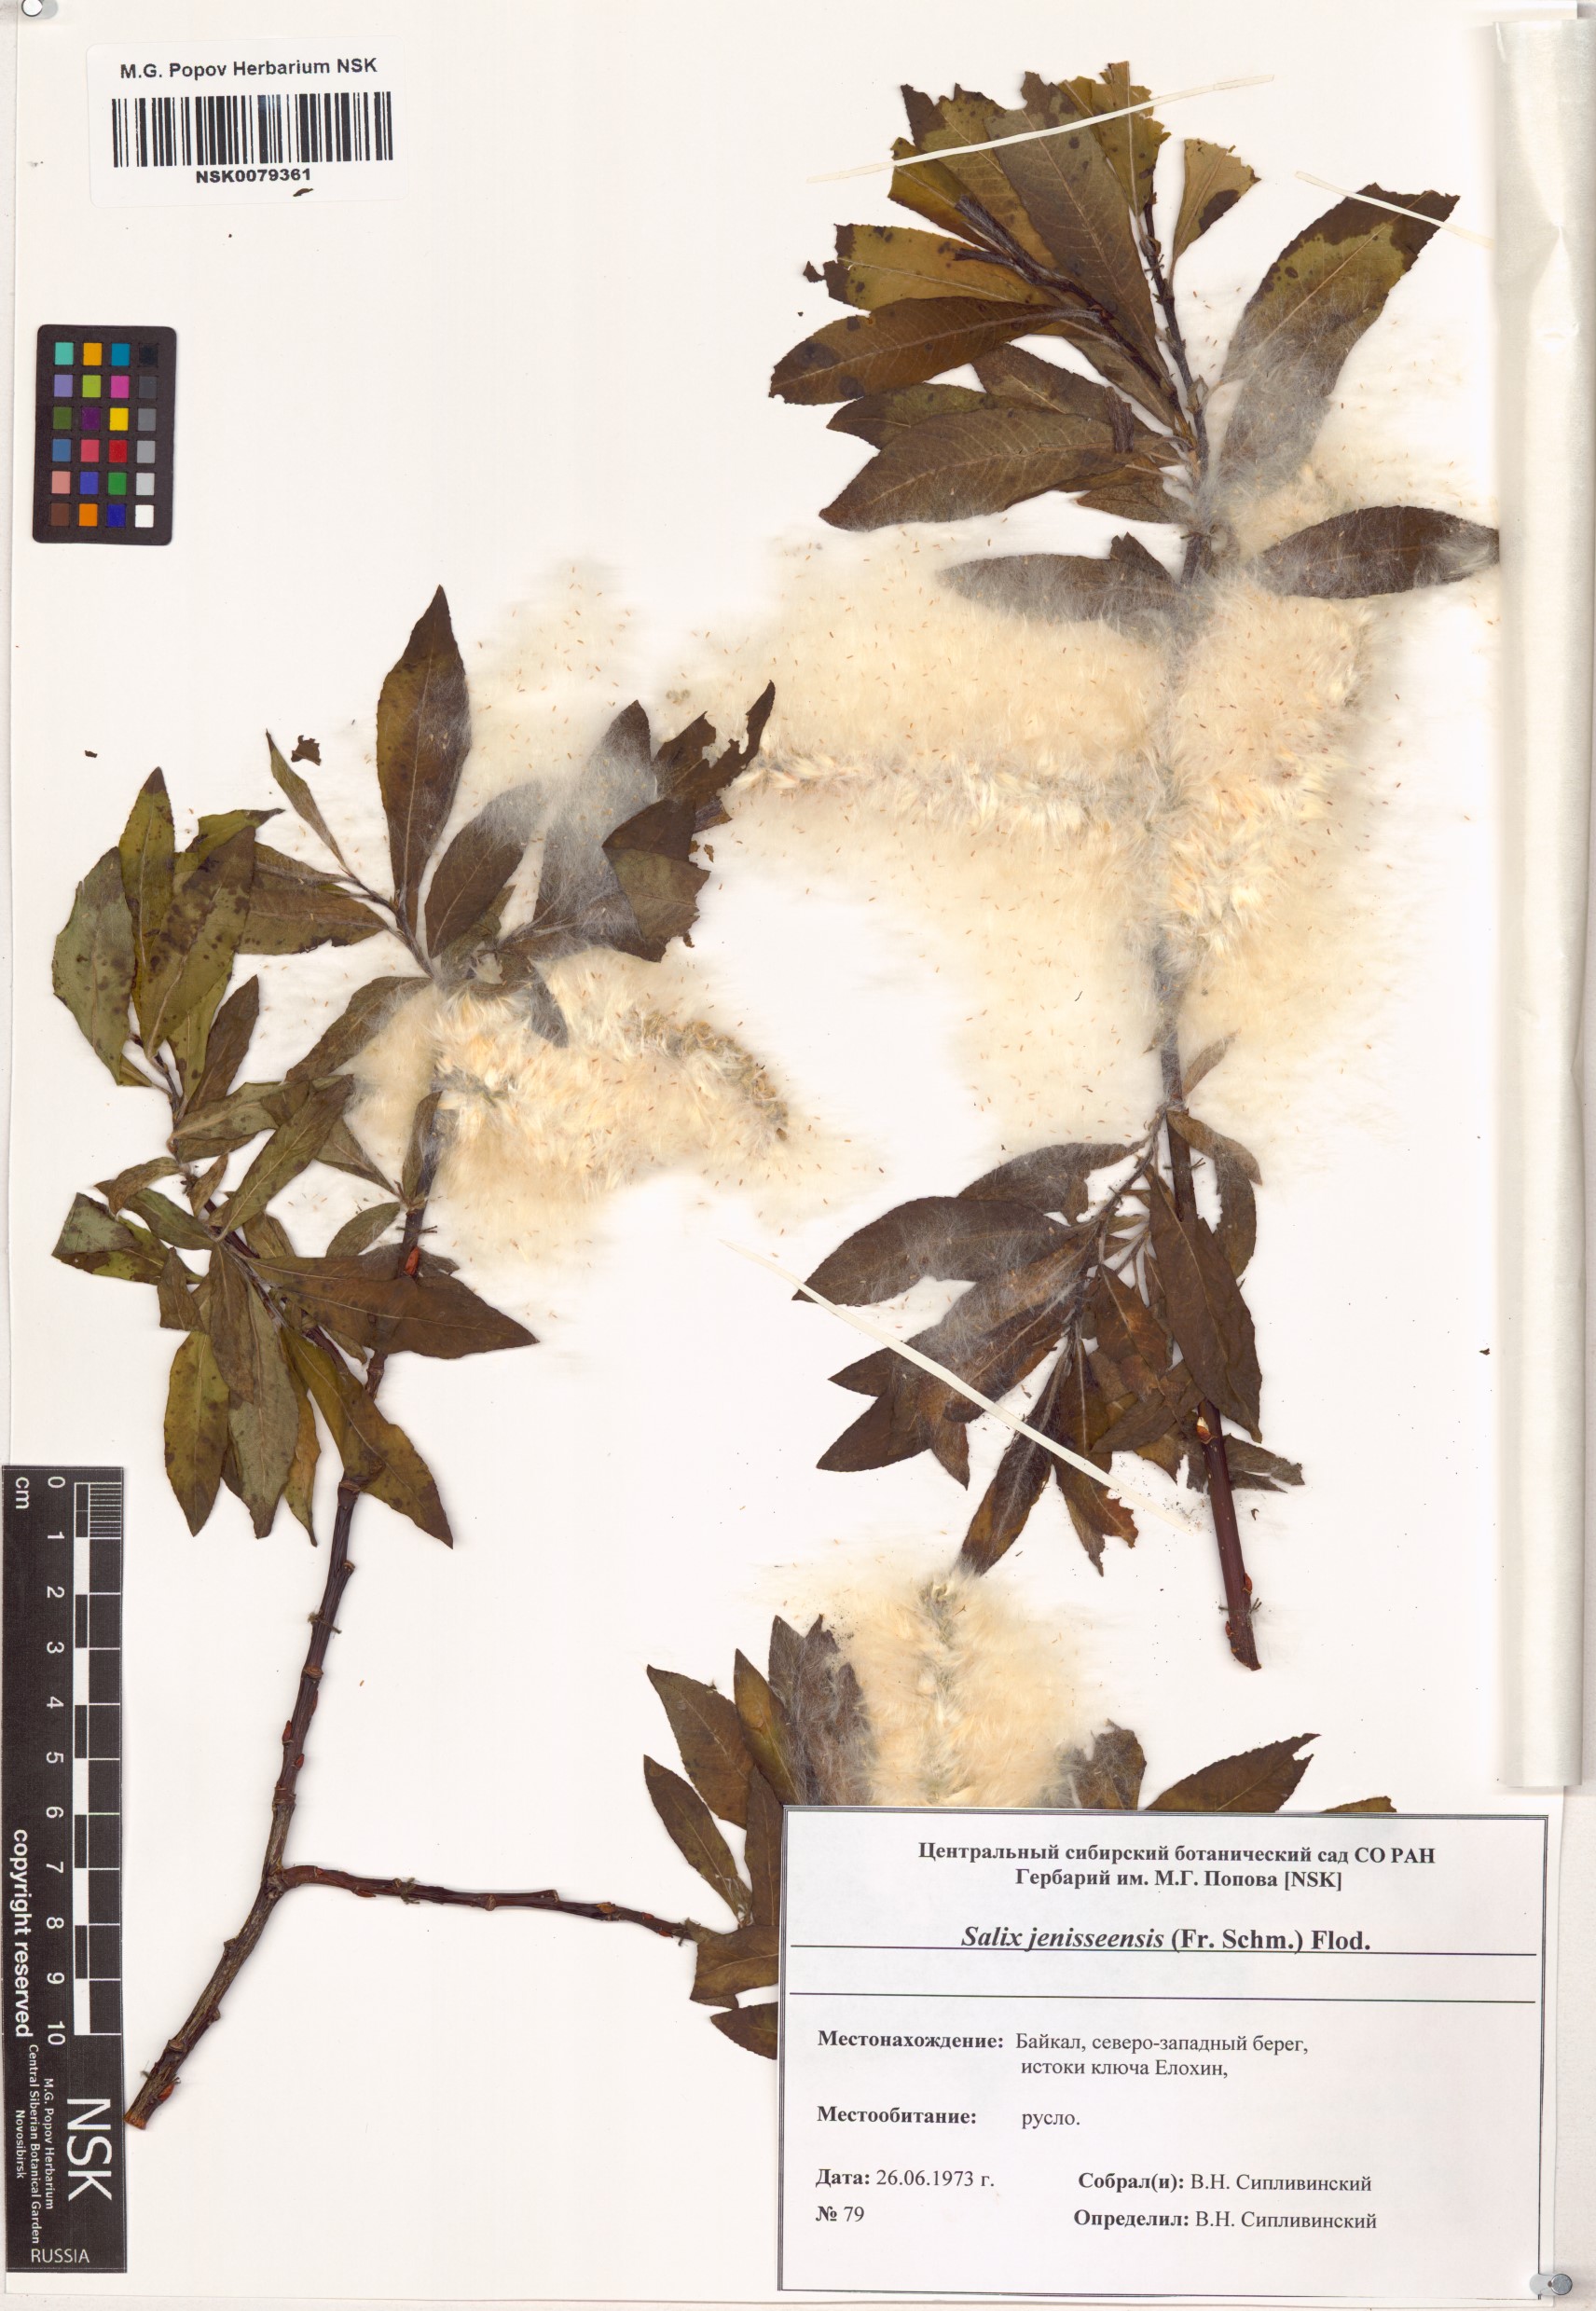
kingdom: Plantae
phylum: Tracheophyta
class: Magnoliopsida
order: Malpighiales
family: Salicaceae
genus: Salix
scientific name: Salix jenisseensis
